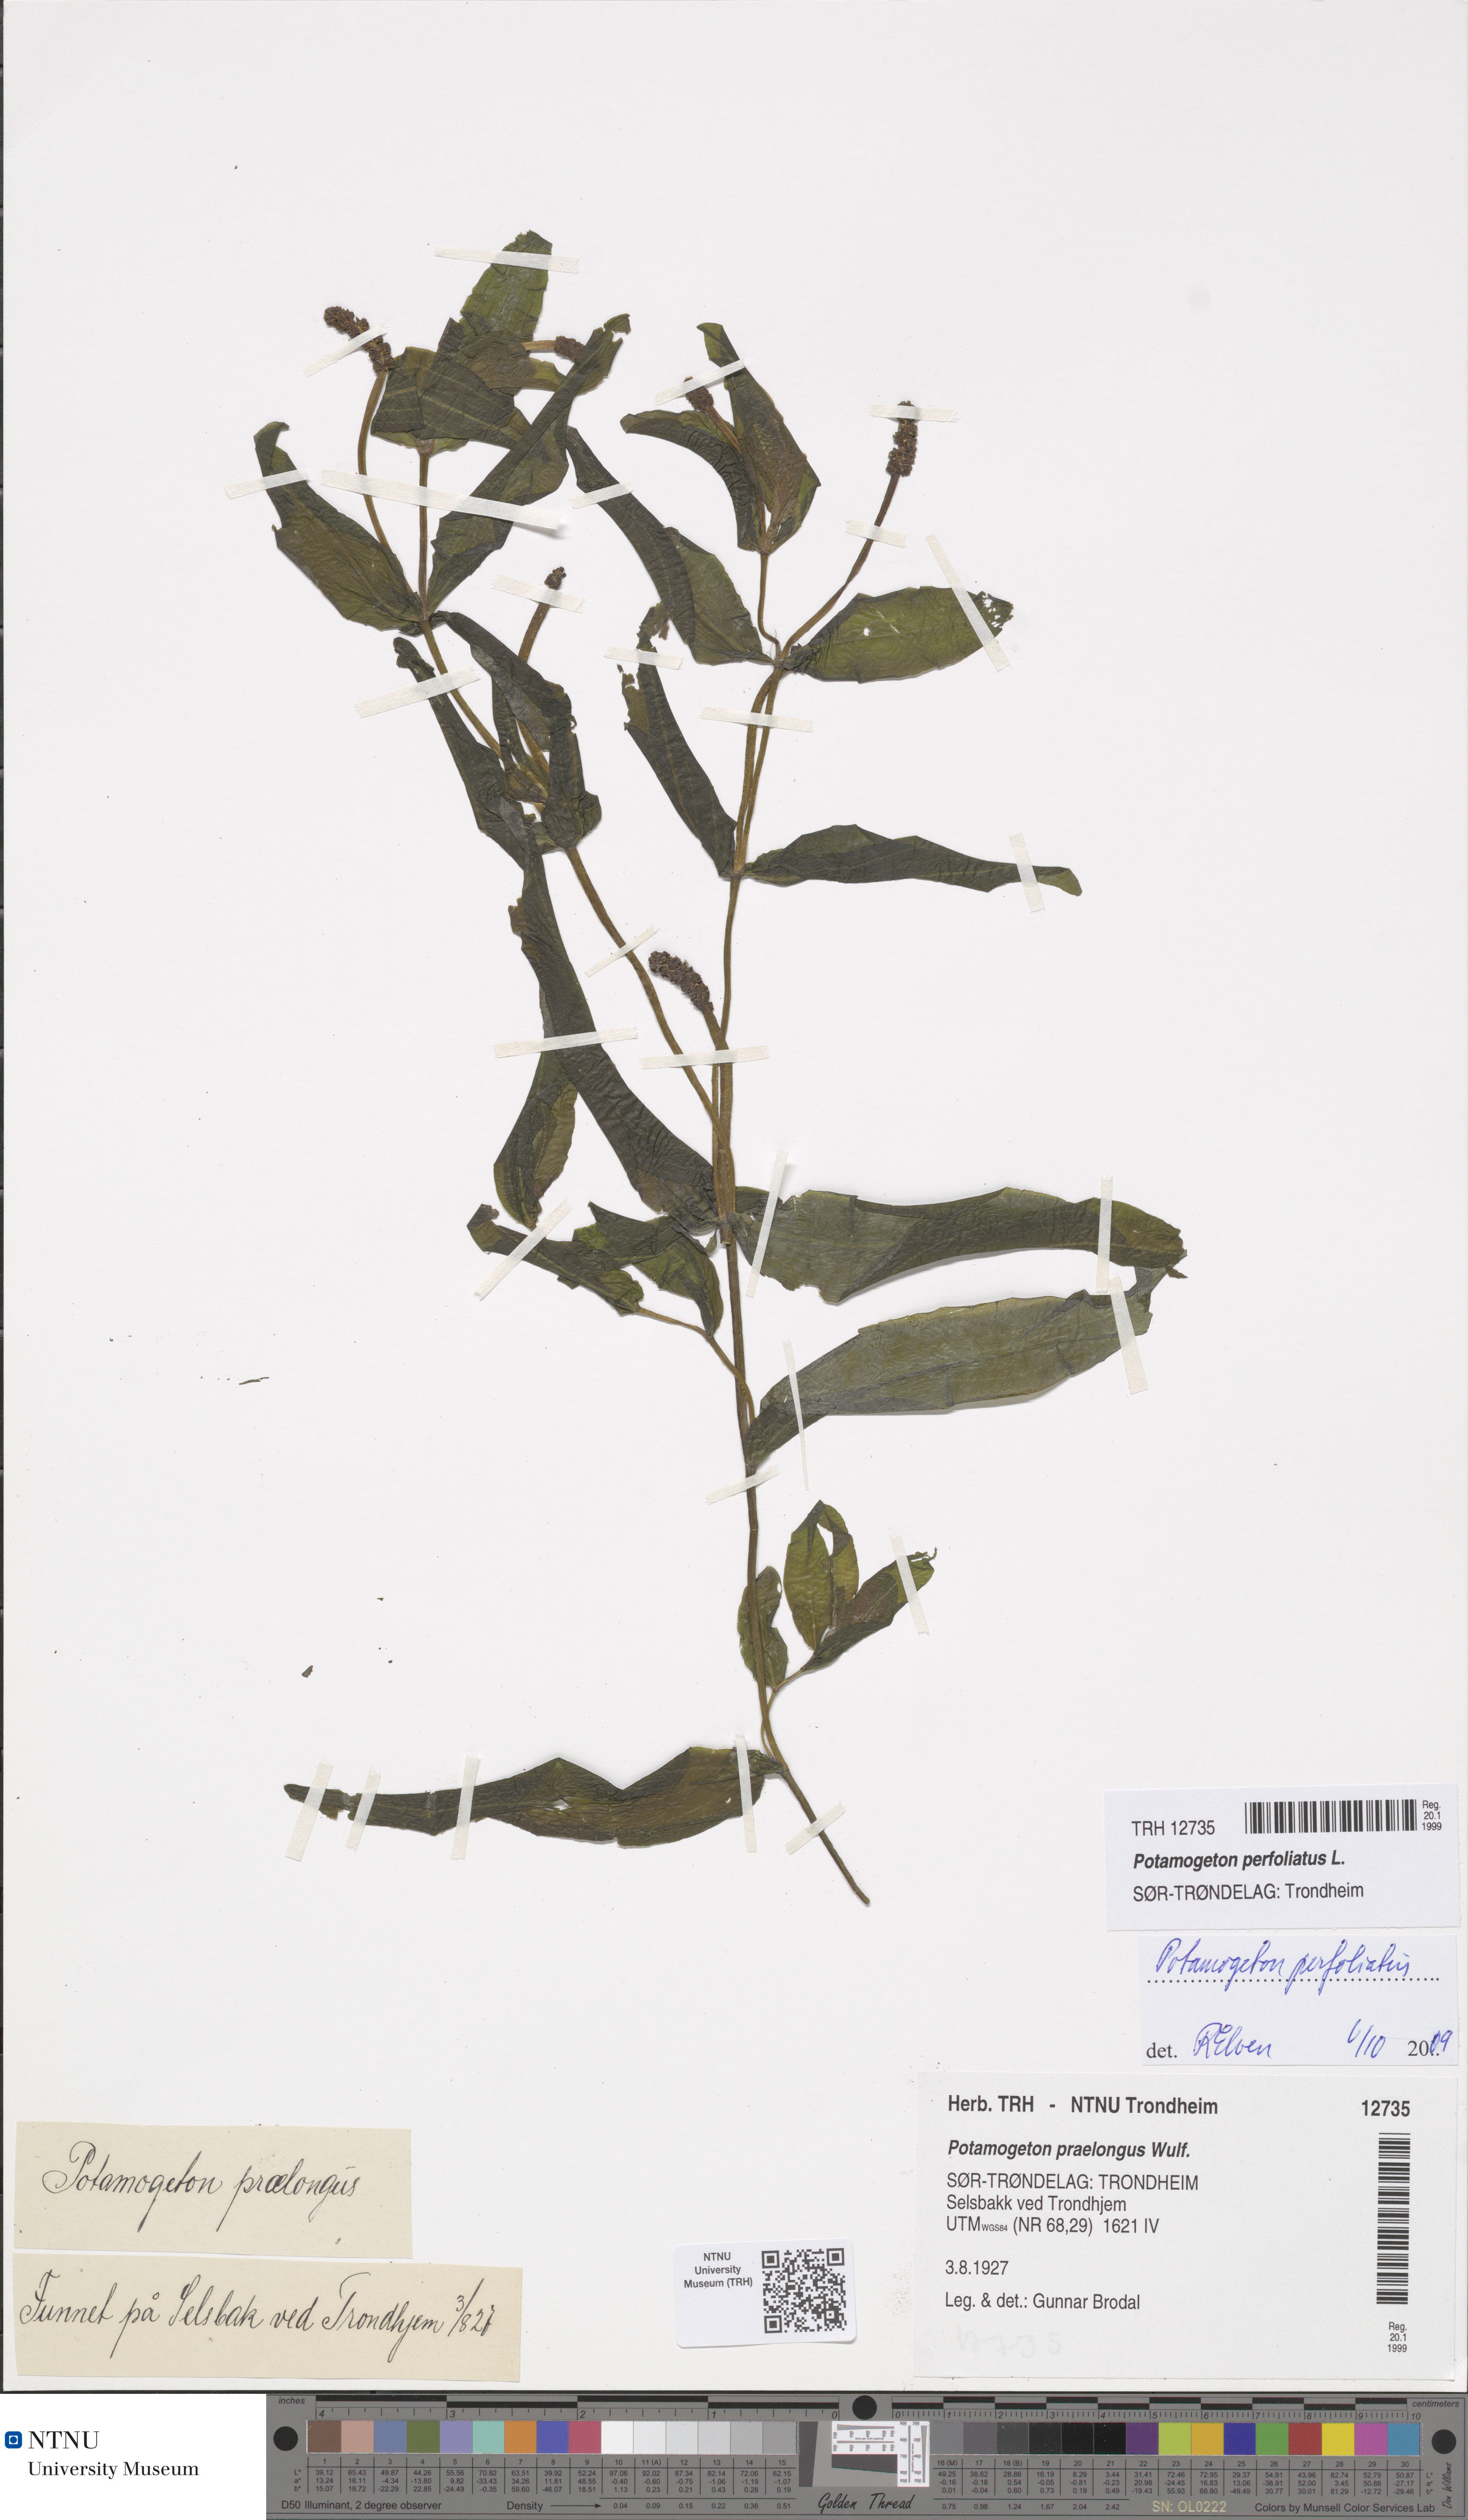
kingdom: Plantae
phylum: Tracheophyta
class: Liliopsida
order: Alismatales
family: Potamogetonaceae
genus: Potamogeton
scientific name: Potamogeton perfoliatus
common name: Perfoliate pondweed
